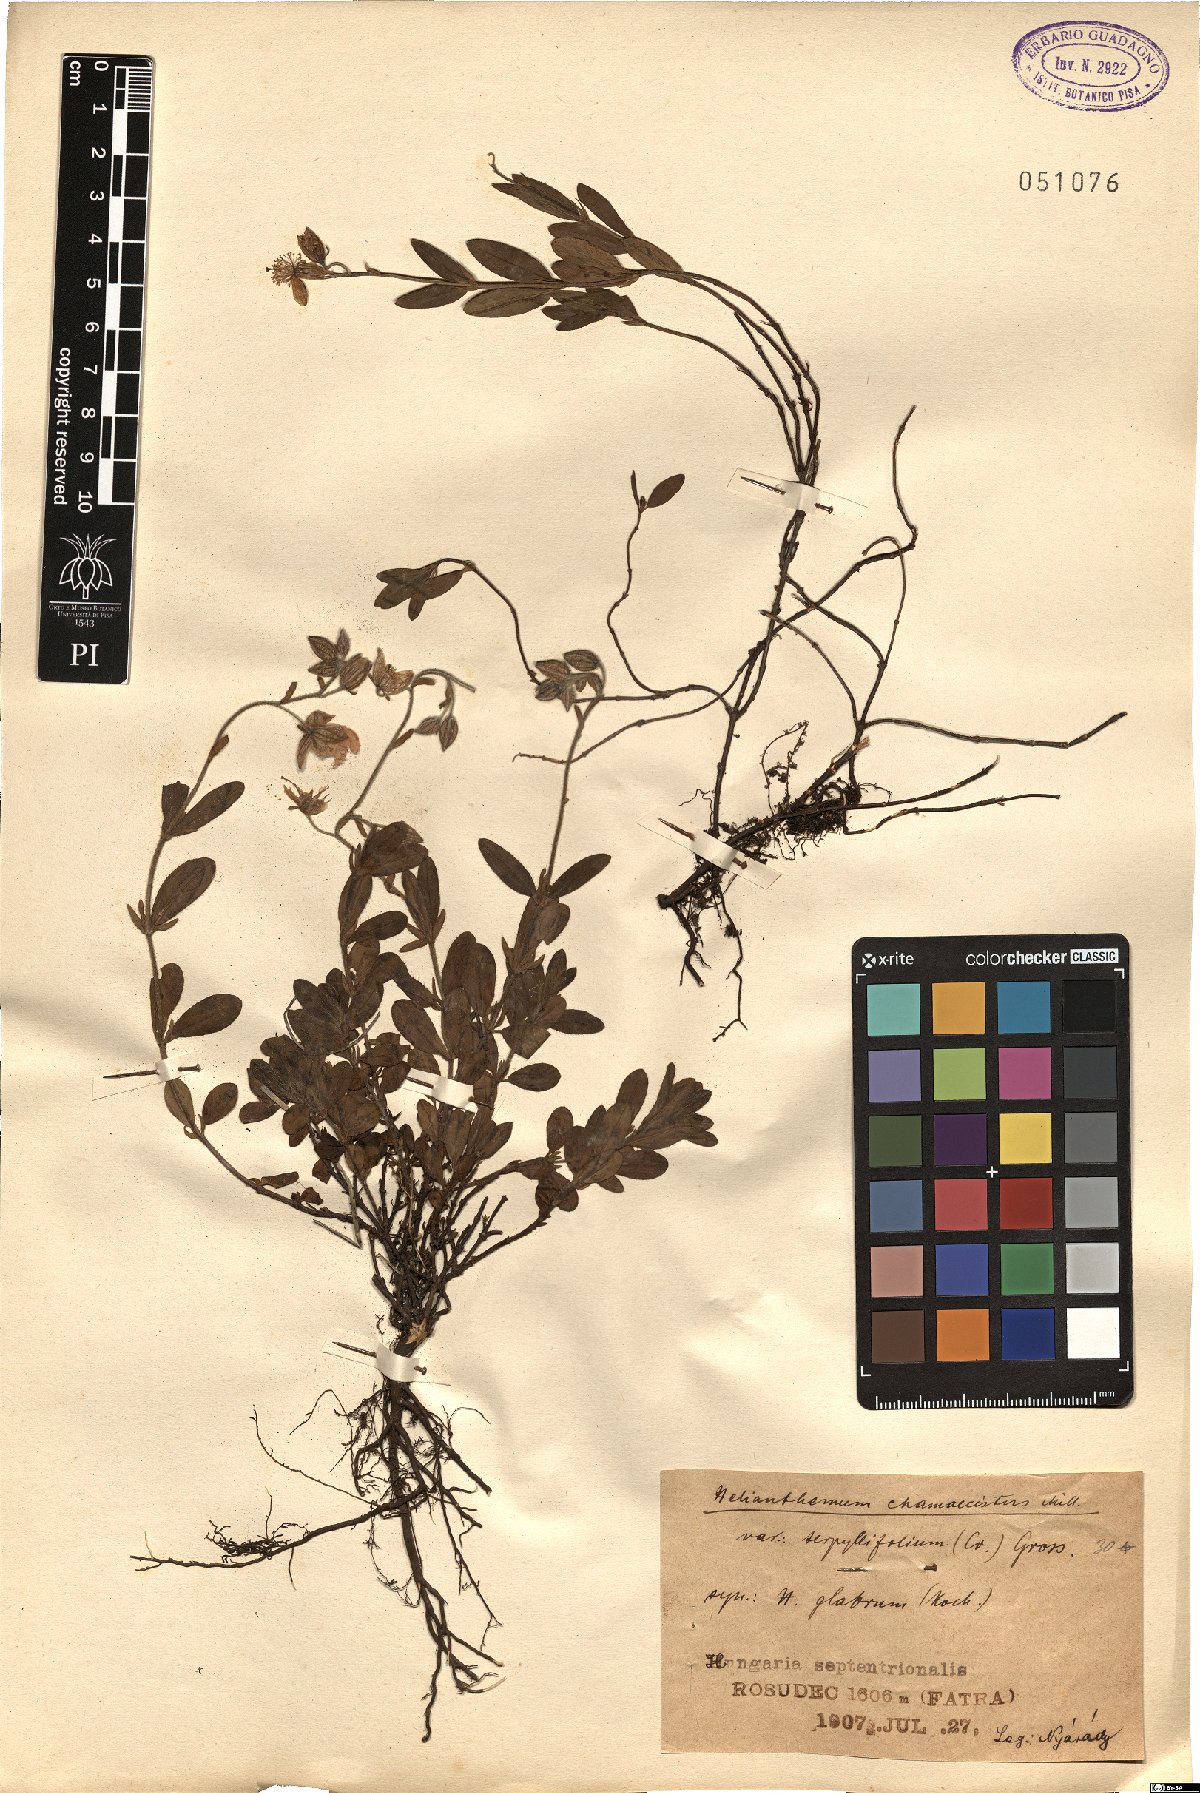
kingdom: Plantae
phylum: Tracheophyta
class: Magnoliopsida
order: Malvales
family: Cistaceae
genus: Helianthemum
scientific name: Helianthemum nummularium
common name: Common rock-rose
